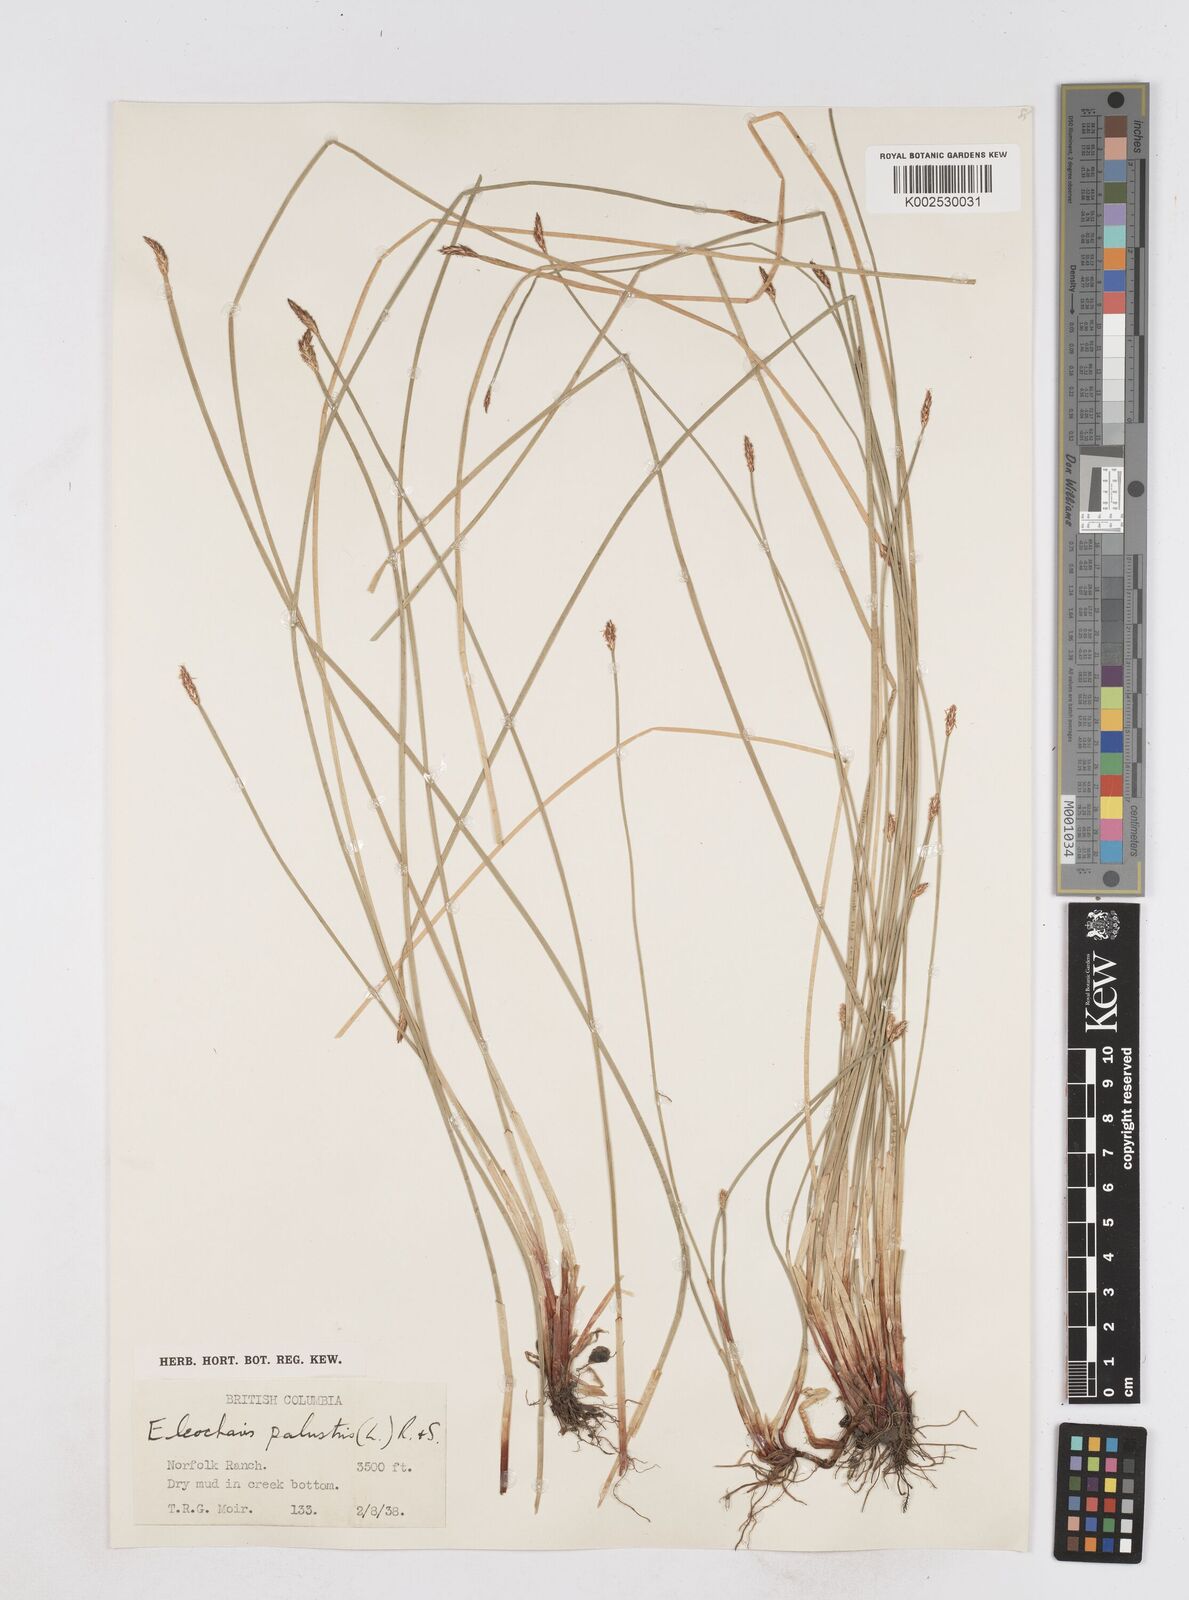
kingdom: Plantae
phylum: Tracheophyta
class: Liliopsida
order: Poales
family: Cyperaceae
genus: Eleocharis
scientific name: Eleocharis palustris
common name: Common spike-rush
